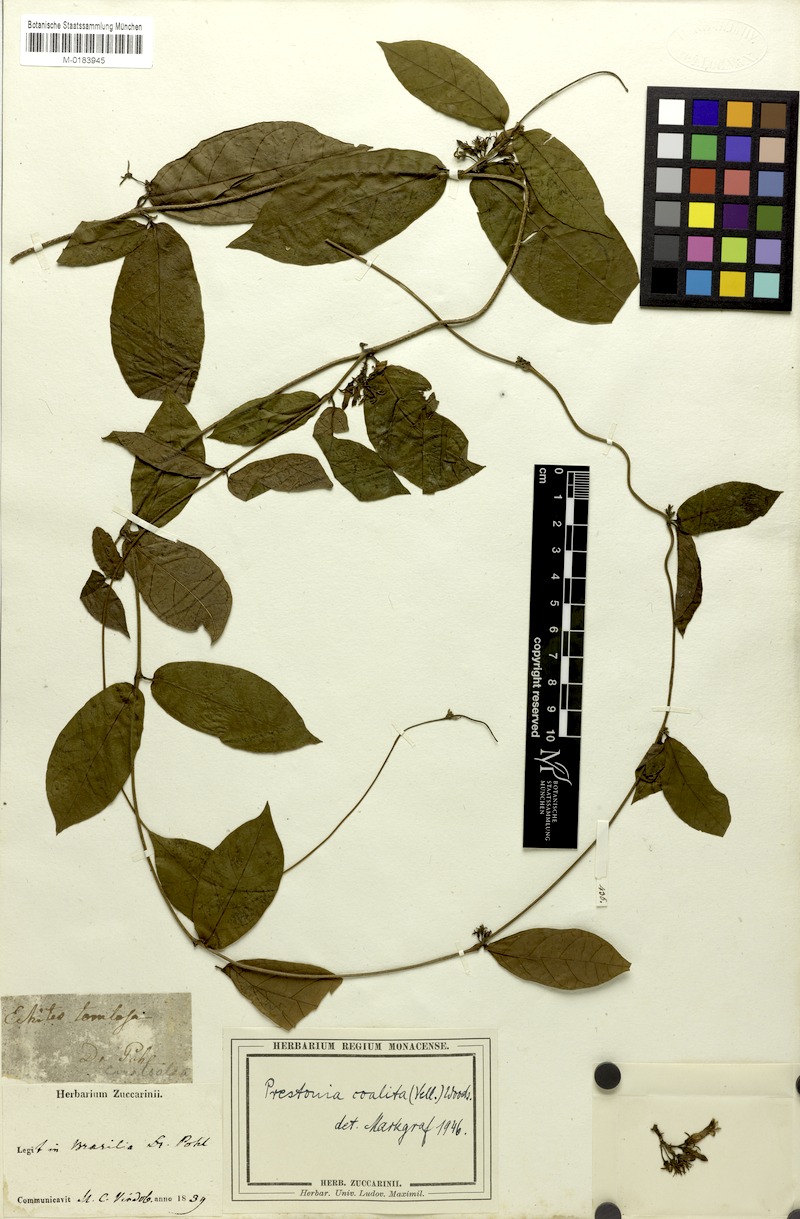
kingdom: Plantae
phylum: Tracheophyta
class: Magnoliopsida
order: Gentianales
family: Apocynaceae
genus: Prestonia
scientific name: Prestonia coalita
